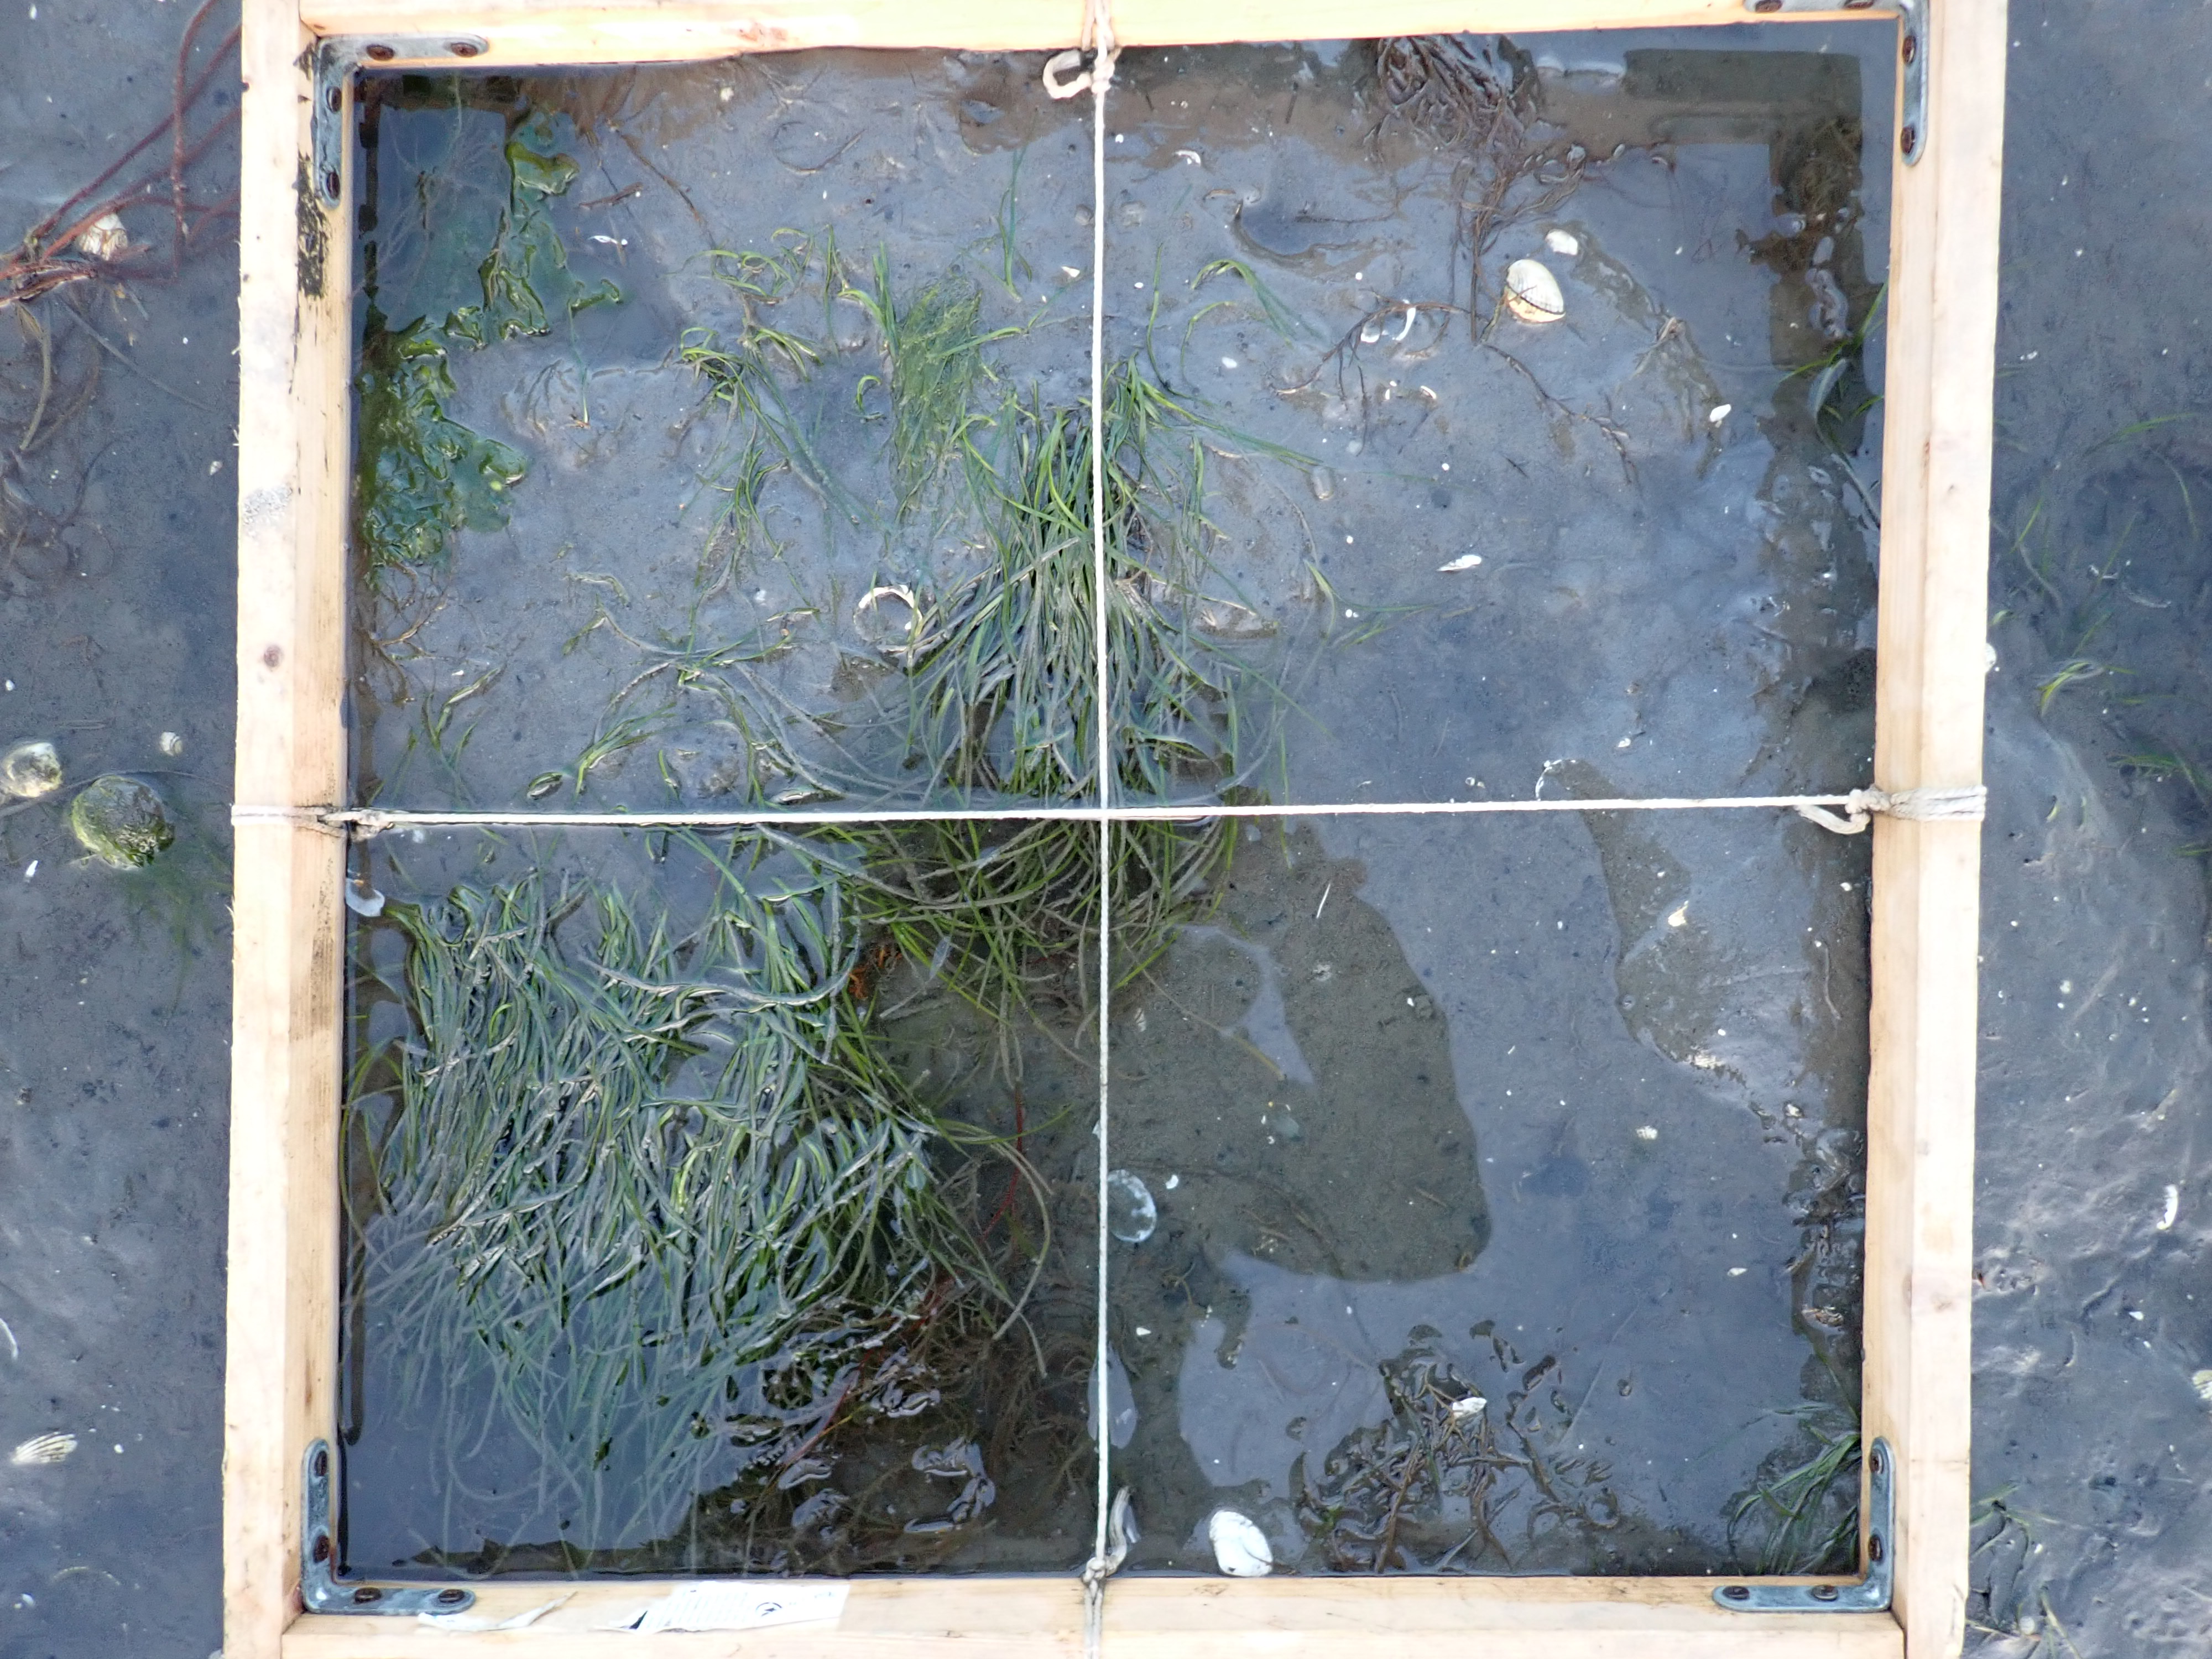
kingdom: Plantae
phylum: Tracheophyta
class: Liliopsida
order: Alismatales
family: Zosteraceae
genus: Zostera
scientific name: Zostera noltii
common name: Dwarf eelgrass
